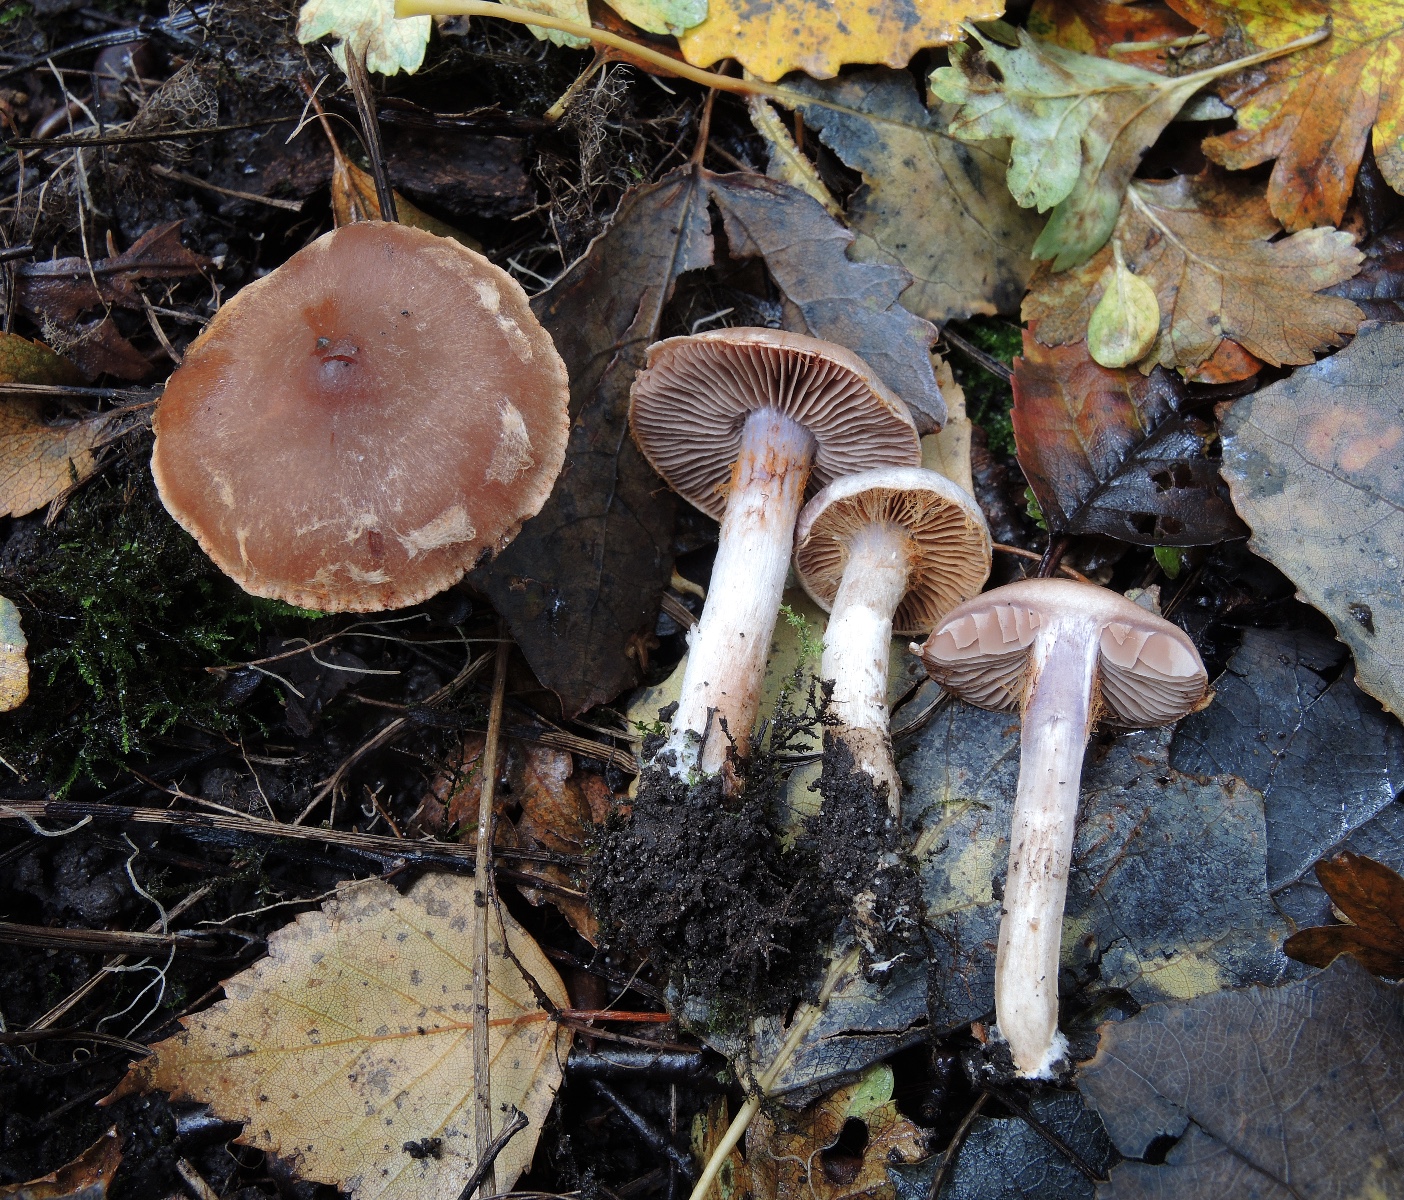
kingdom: Fungi
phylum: Basidiomycota
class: Agaricomycetes
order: Agaricales
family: Cortinariaceae
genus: Cortinarius
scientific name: Cortinarius
